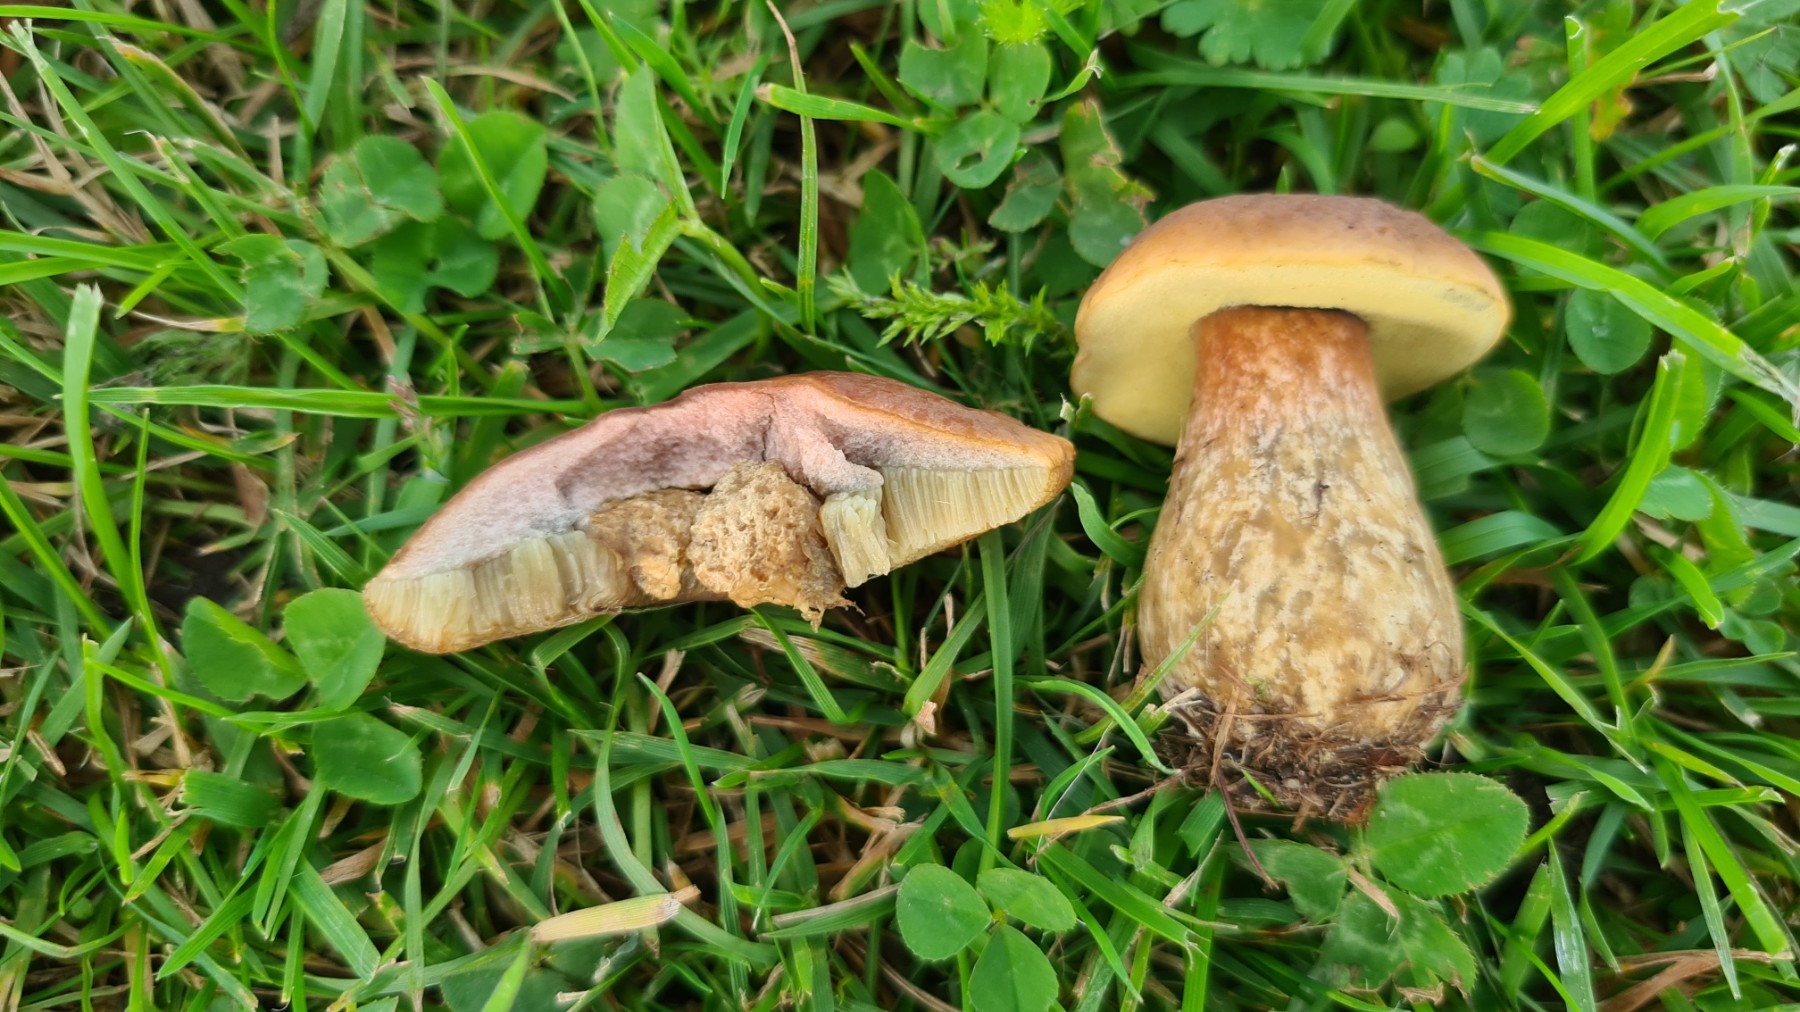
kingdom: Fungi
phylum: Basidiomycota
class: Agaricomycetes
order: Boletales
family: Boletaceae
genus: Hortiboletus
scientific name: Hortiboletus bubalinus
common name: aurora-rørhat
